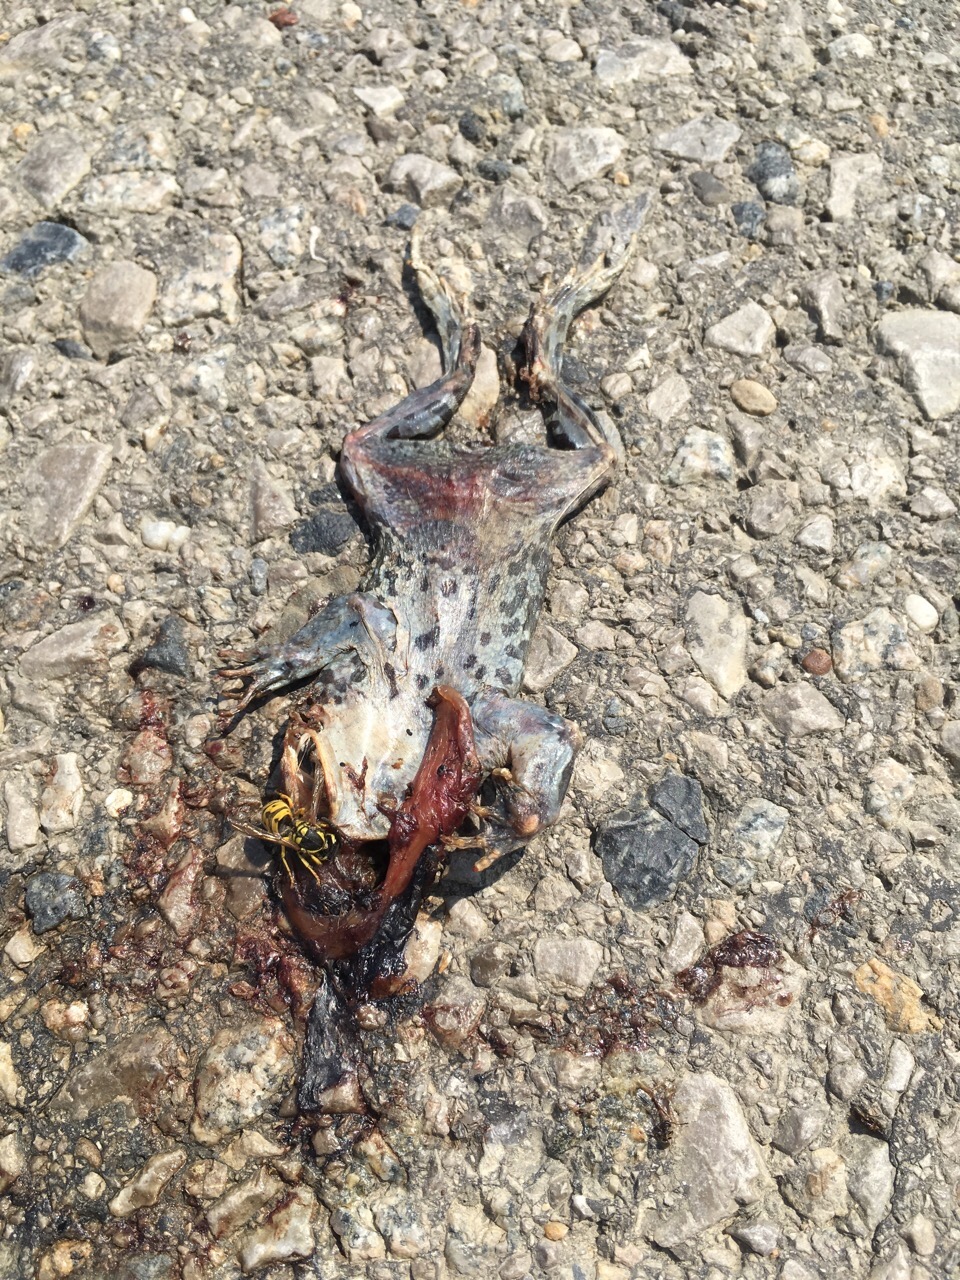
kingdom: Animalia
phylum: Chordata
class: Amphibia
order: Anura
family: Bufonidae
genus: Bufotes
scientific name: Bufotes viridis
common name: European green toad
